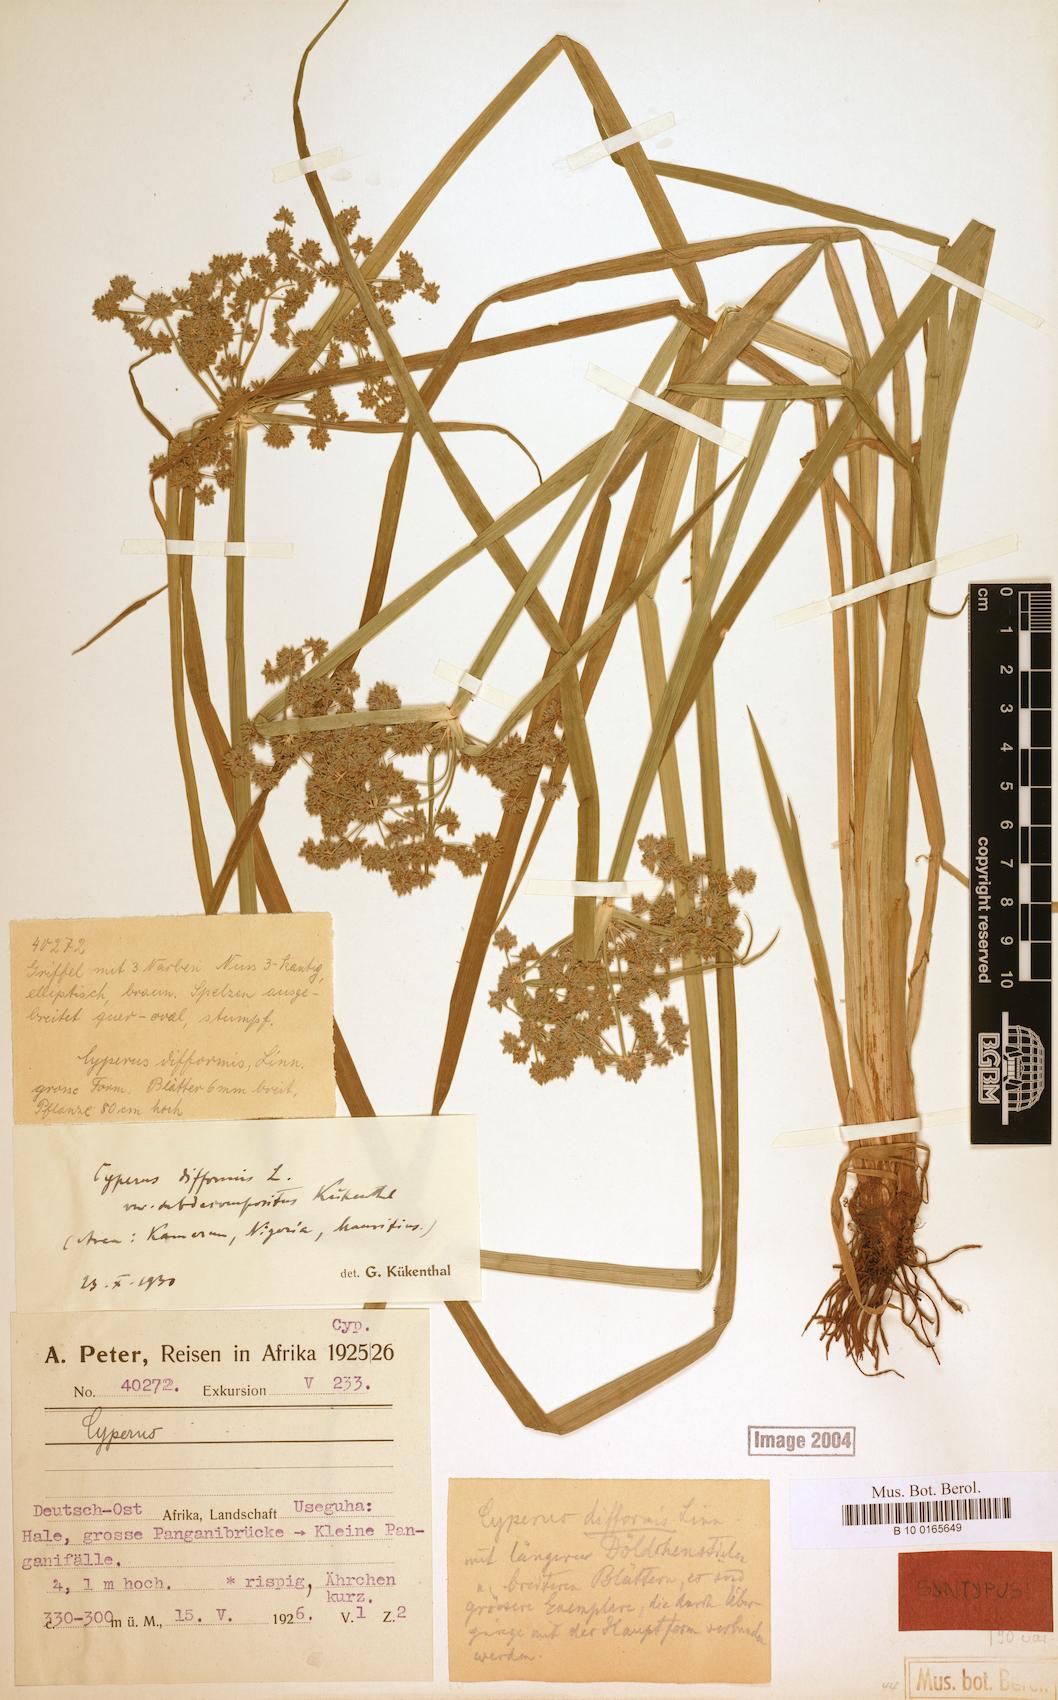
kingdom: Plantae
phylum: Tracheophyta
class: Liliopsida
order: Poales
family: Cyperaceae
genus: Cyperus
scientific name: Cyperus difformis
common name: Variable flatsedge
